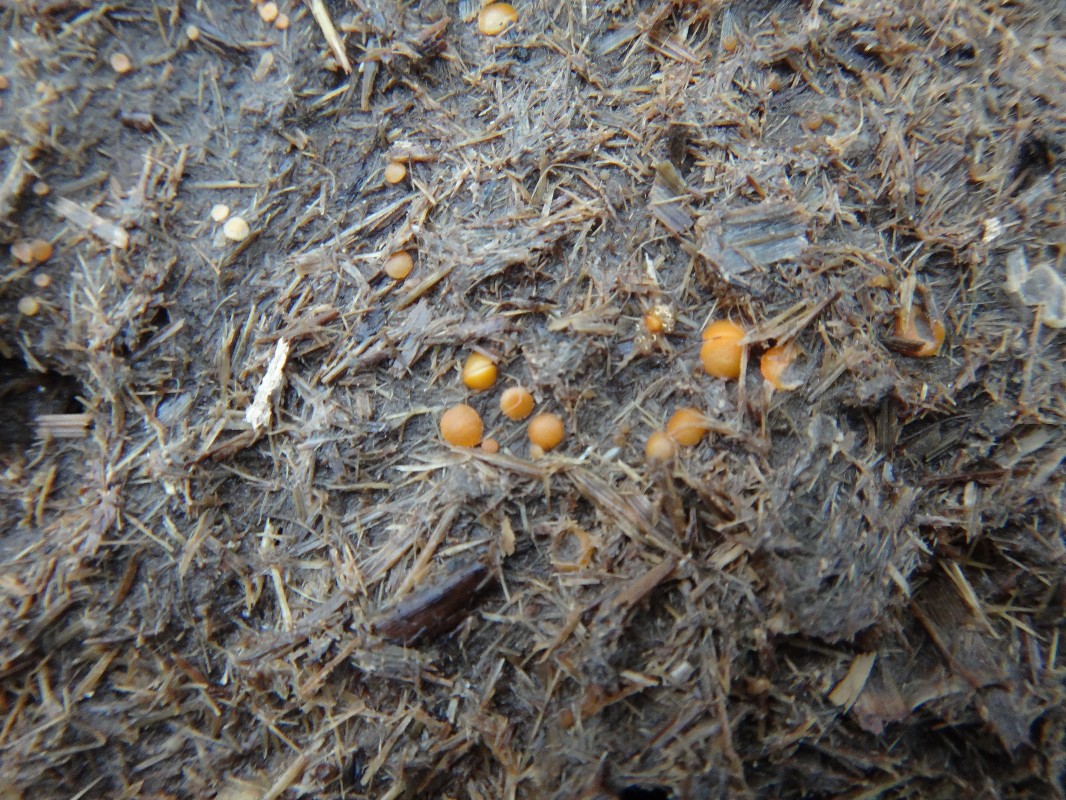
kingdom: Fungi
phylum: Ascomycota
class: Pezizomycetes
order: Pezizales
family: Pyronemataceae
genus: Cheilymenia
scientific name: Cheilymenia granulata
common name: møgbæger
